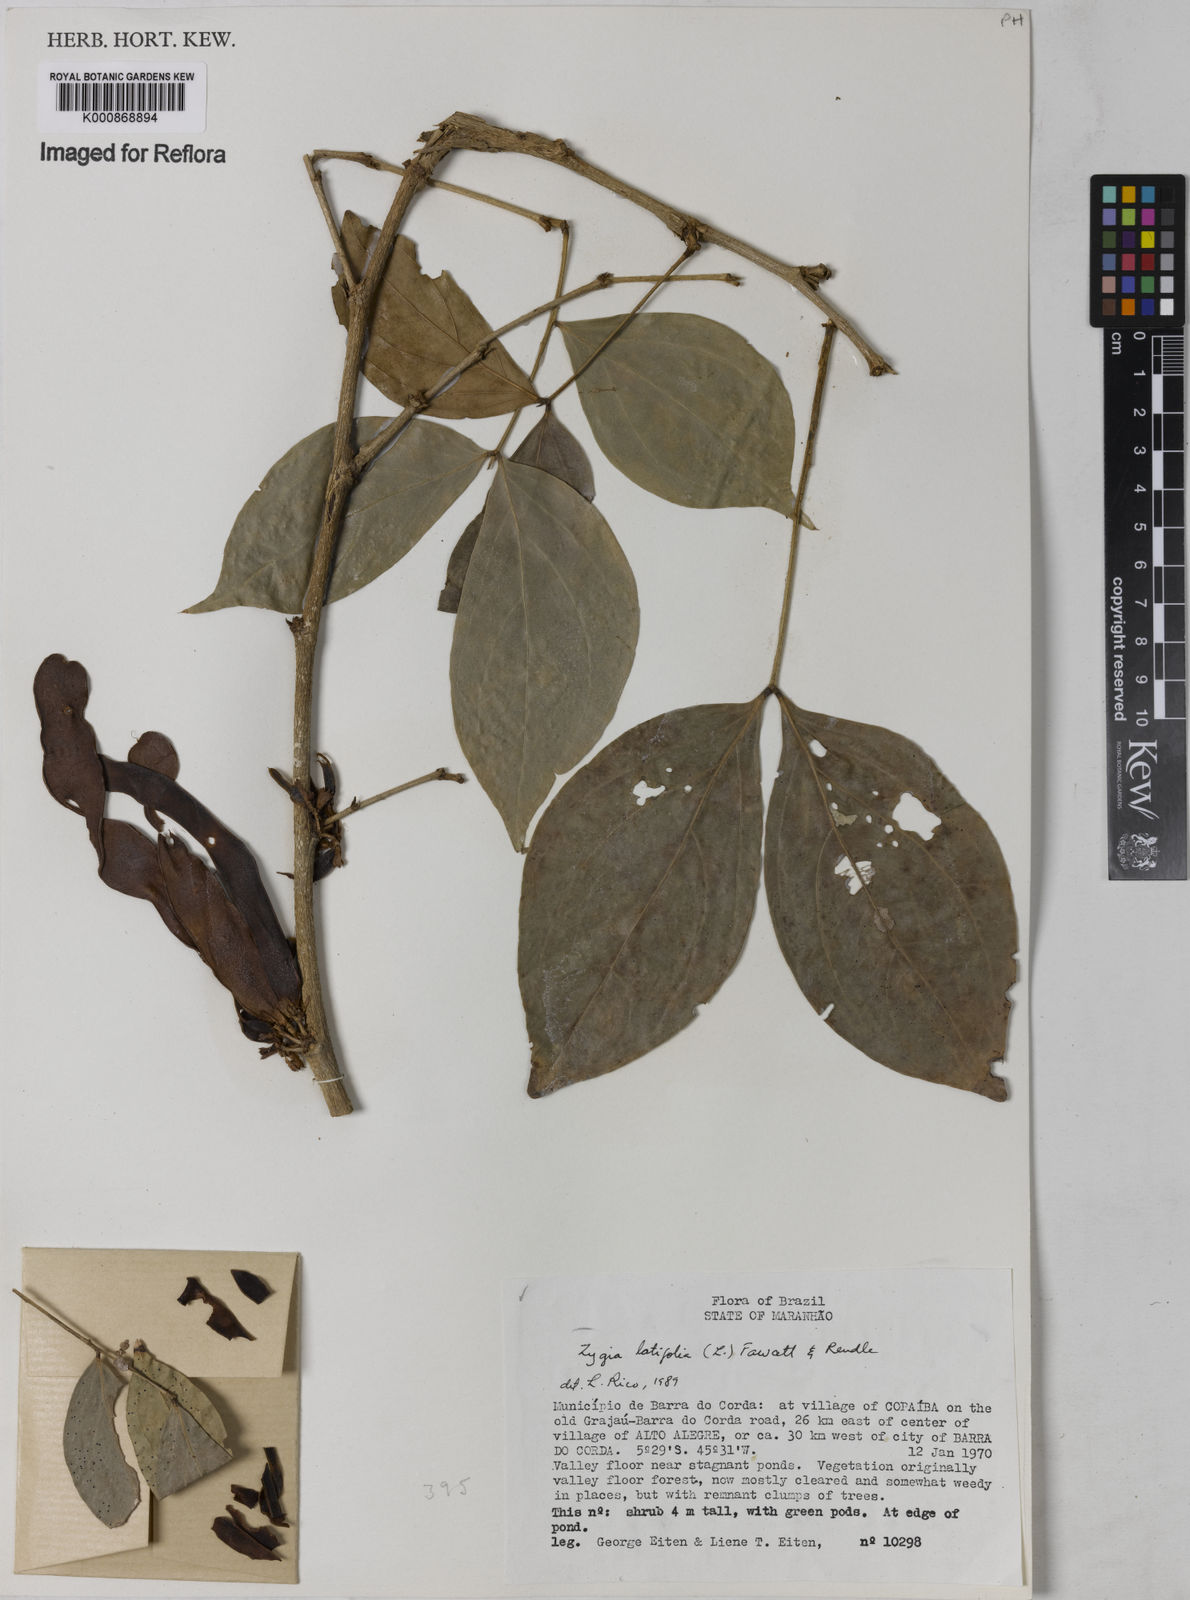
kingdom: Plantae
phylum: Tracheophyta
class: Magnoliopsida
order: Fabales
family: Fabaceae
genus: Zygia
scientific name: Zygia latifolia
